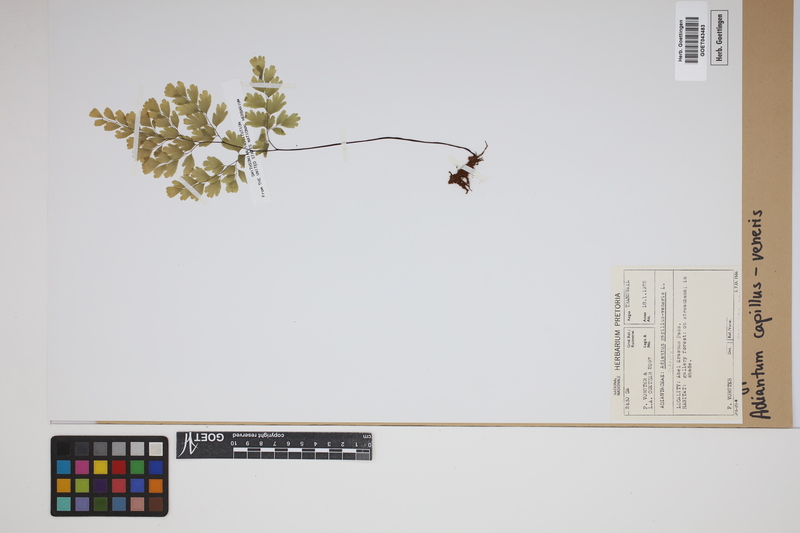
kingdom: Plantae
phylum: Tracheophyta
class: Polypodiopsida
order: Polypodiales
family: Pteridaceae
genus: Adiantum
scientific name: Adiantum capillus-veneris
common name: Maidenhair fern
